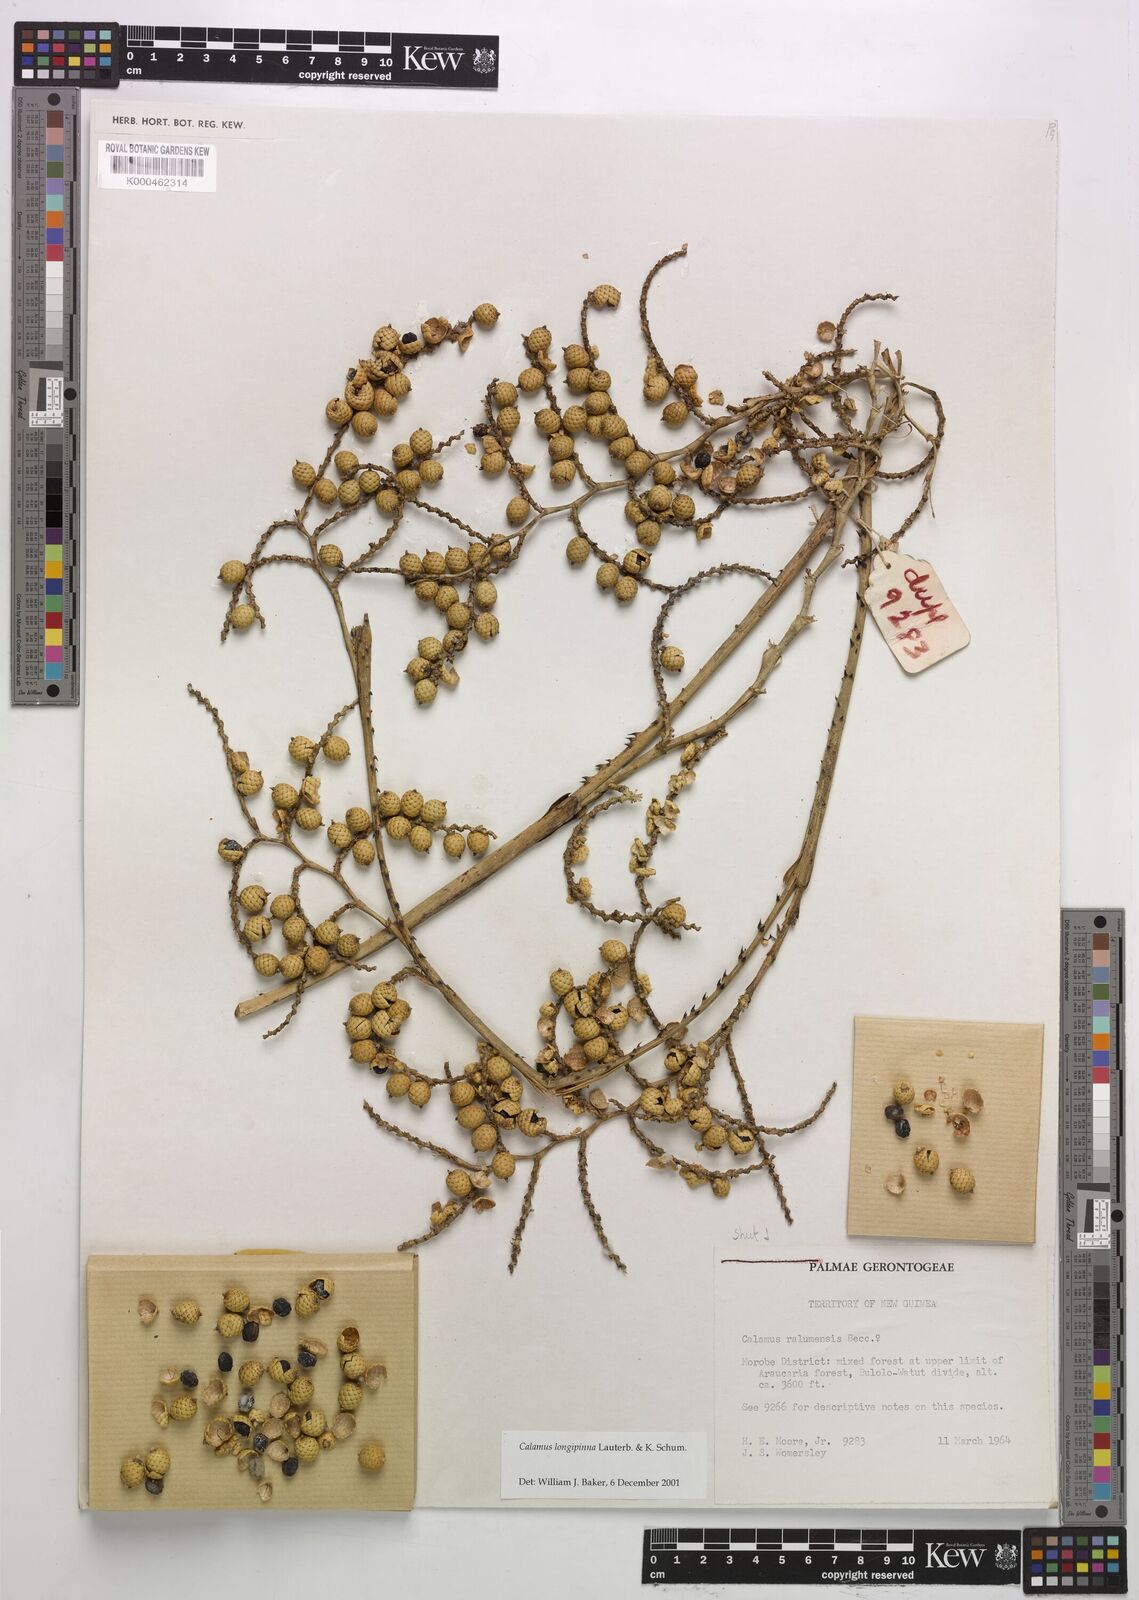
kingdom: Plantae
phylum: Tracheophyta
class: Liliopsida
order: Arecales
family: Arecaceae
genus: Calamus
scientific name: Calamus longipinna
